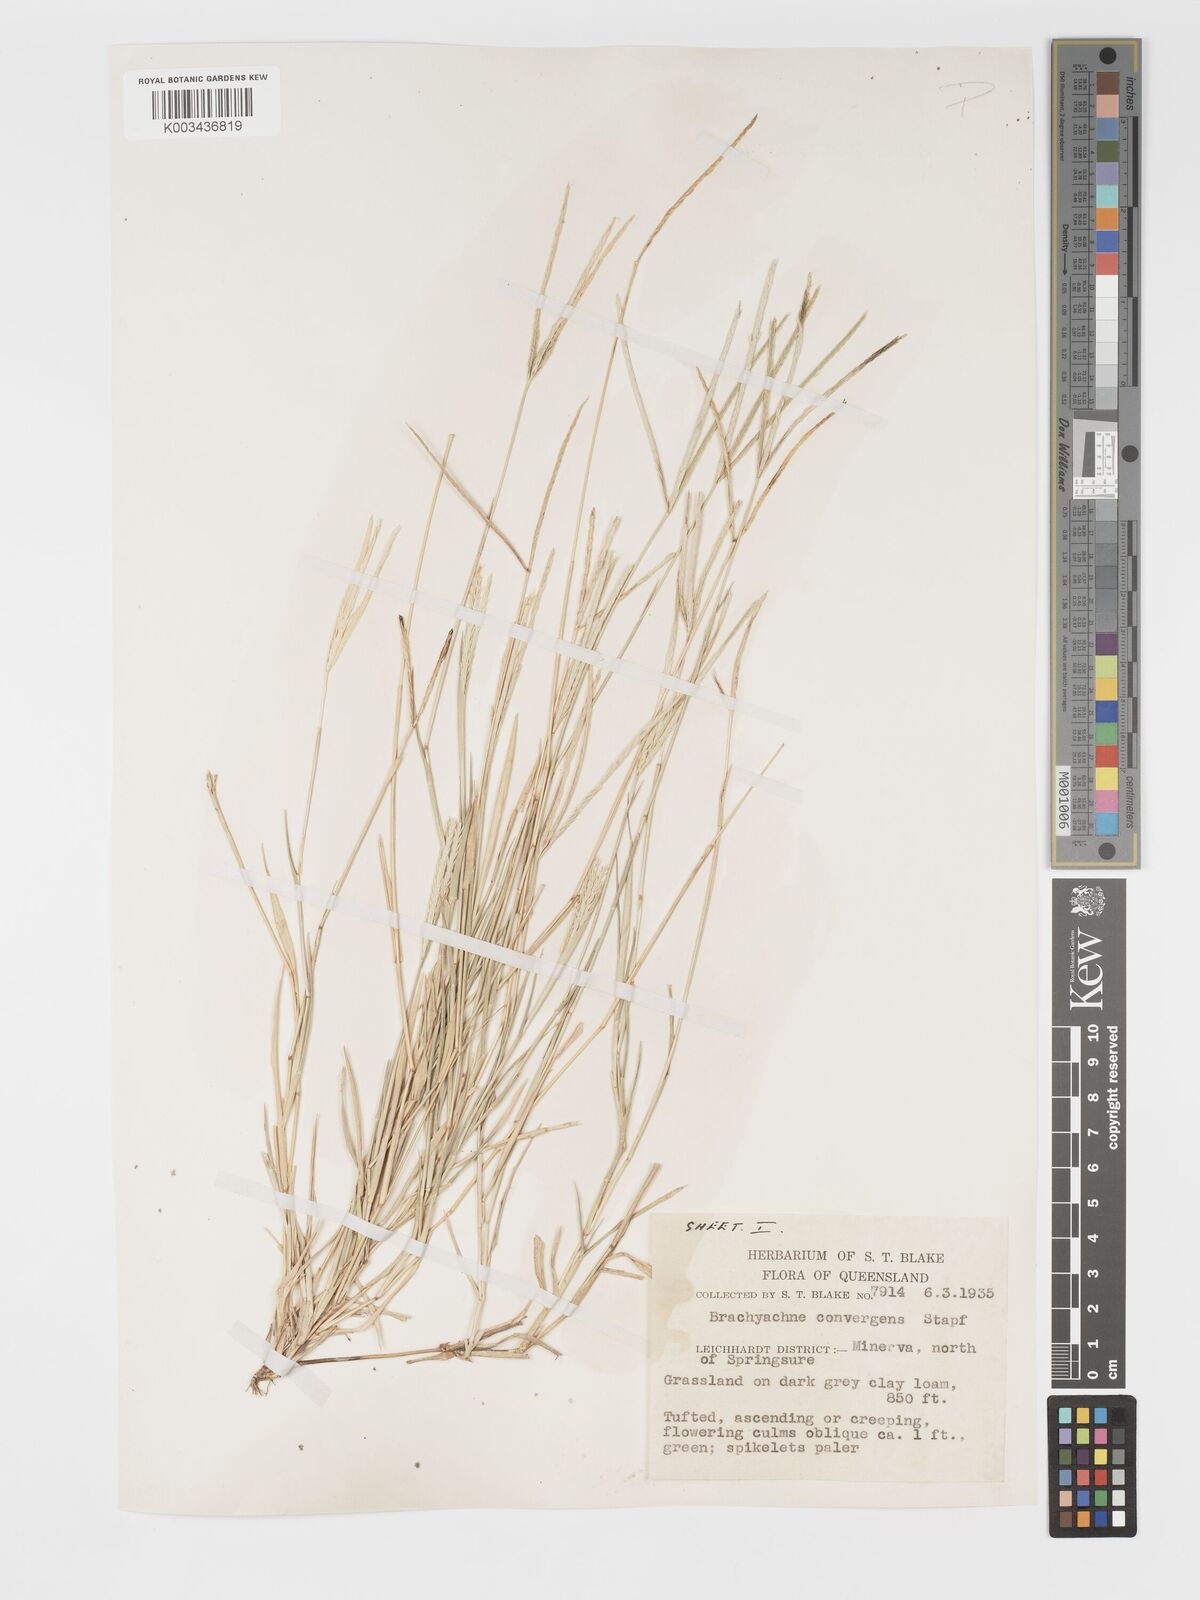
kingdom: Plantae
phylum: Tracheophyta
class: Liliopsida
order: Poales
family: Poaceae
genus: Cynodon
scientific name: Cynodon convergens
